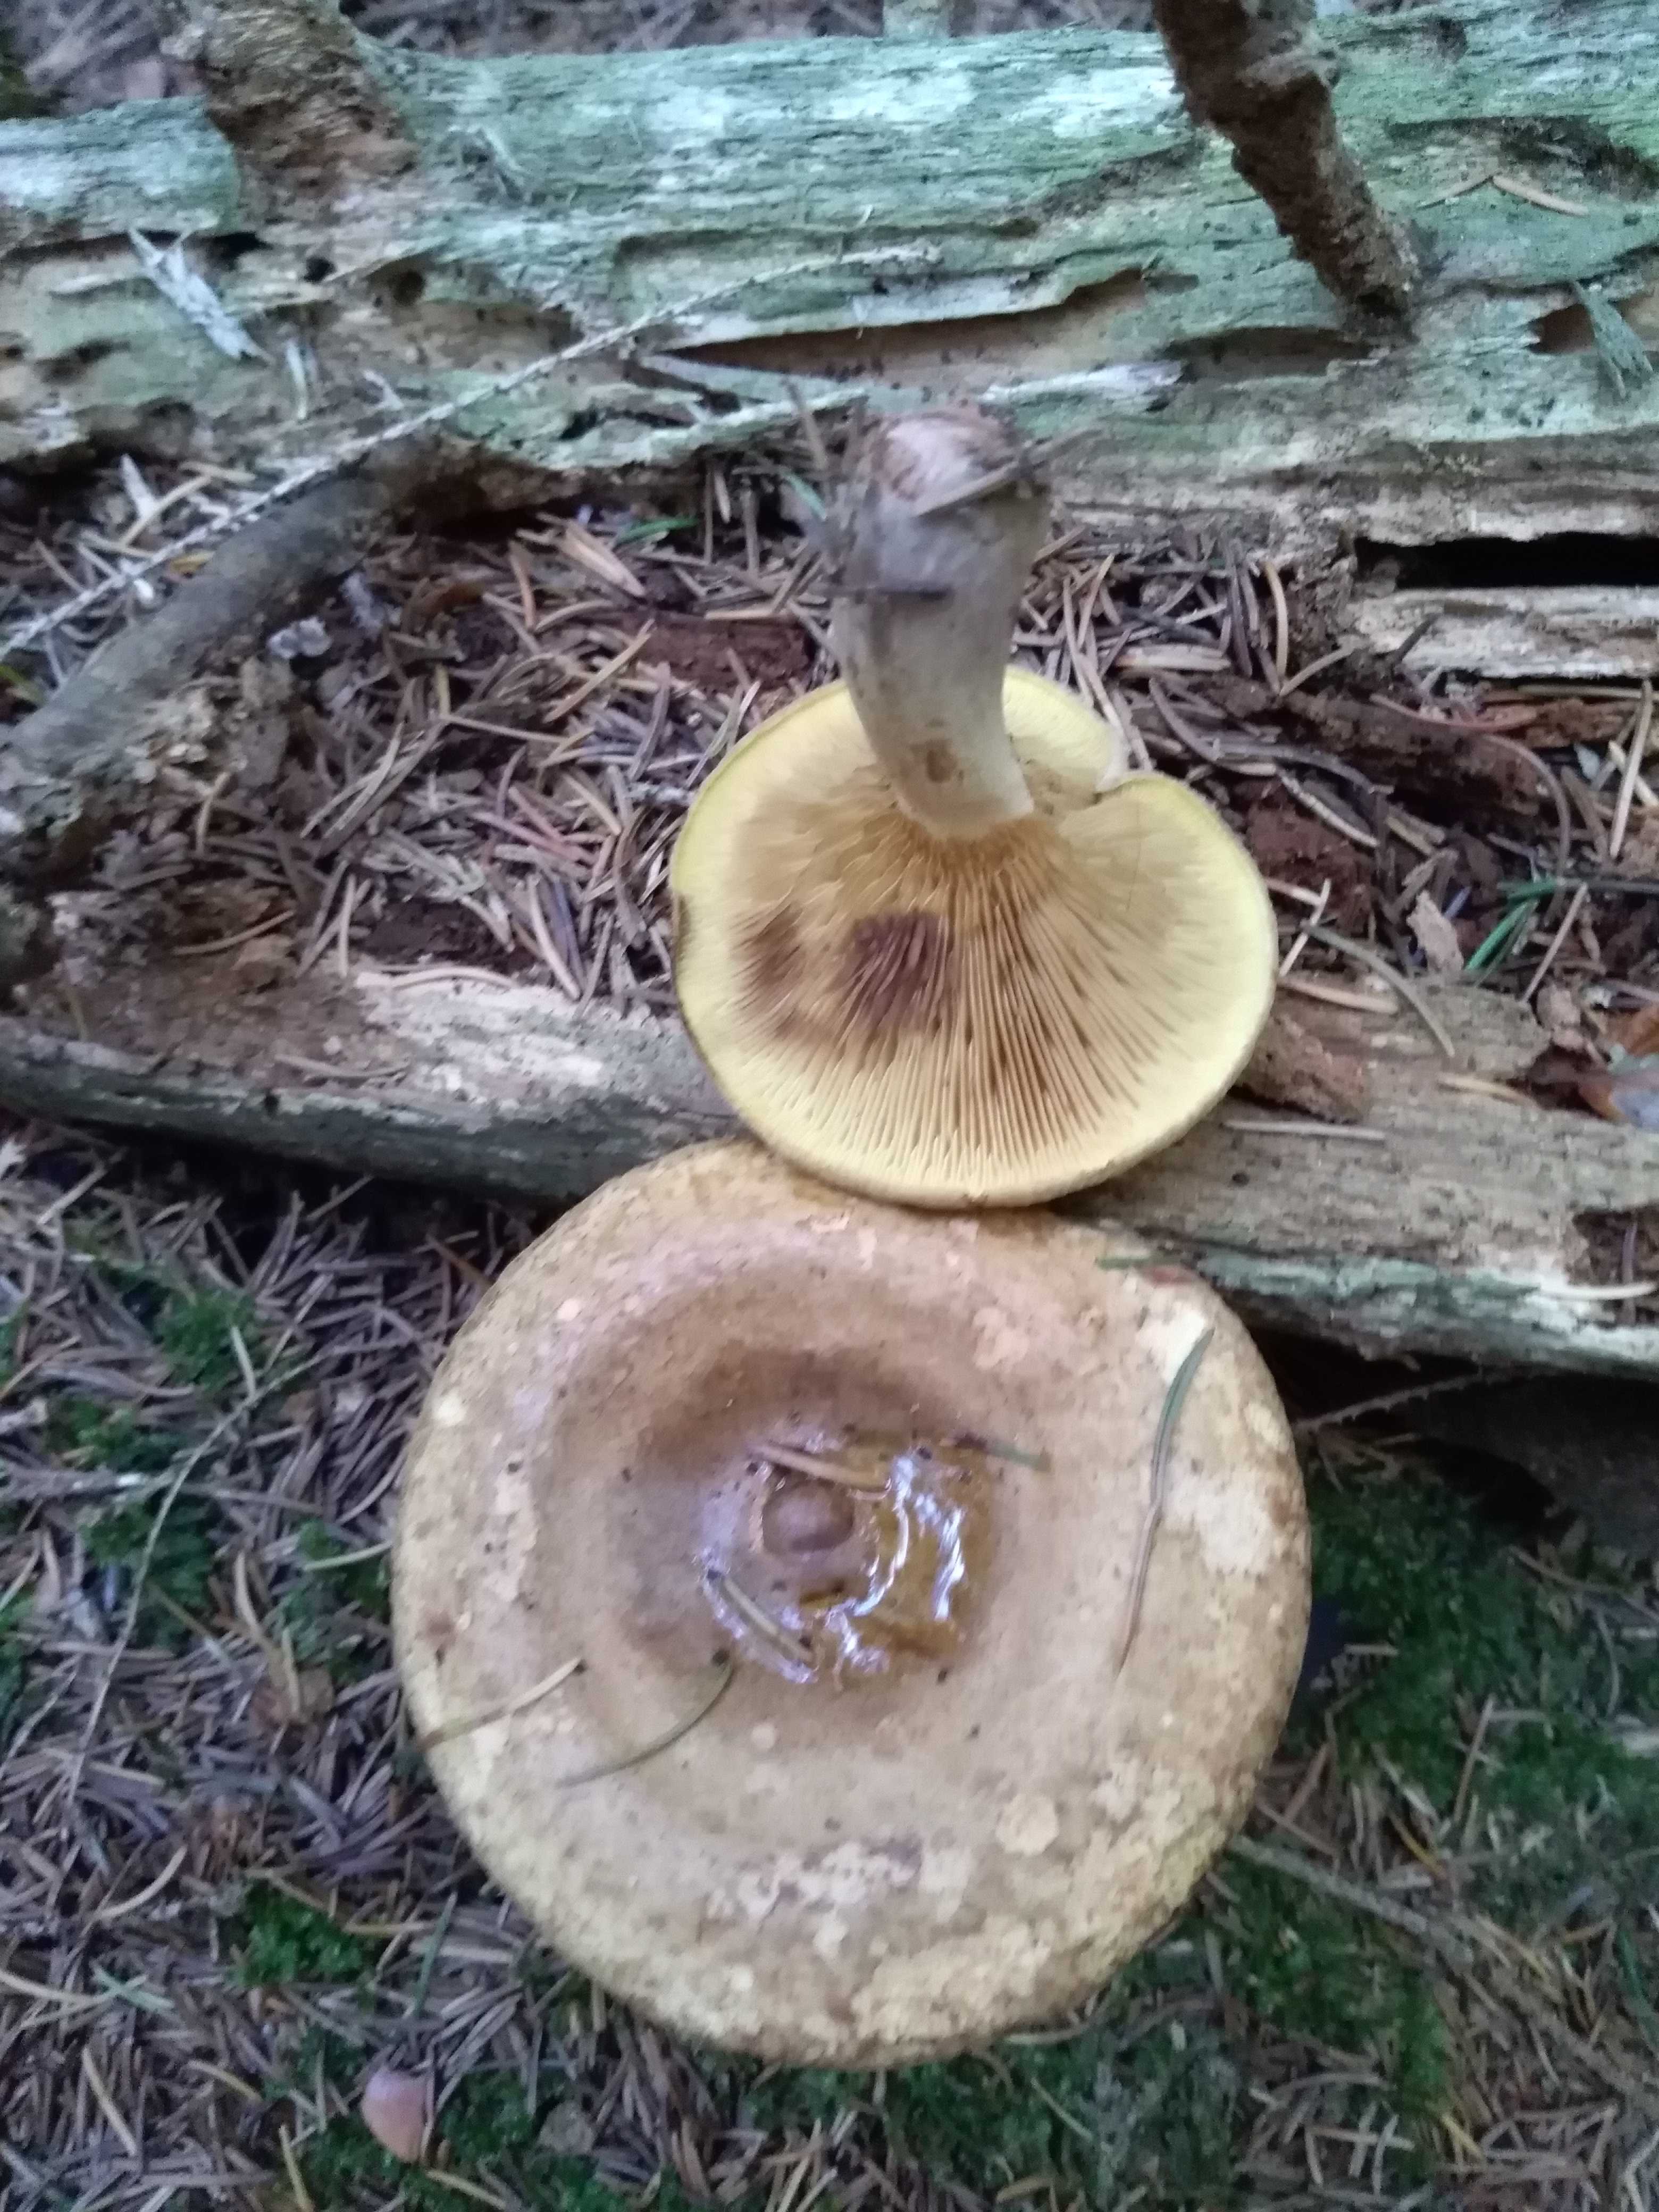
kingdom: Fungi
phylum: Basidiomycota
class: Agaricomycetes
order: Boletales
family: Paxillaceae
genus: Paxillus
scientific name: Paxillus involutus
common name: almindelig netbladhat
